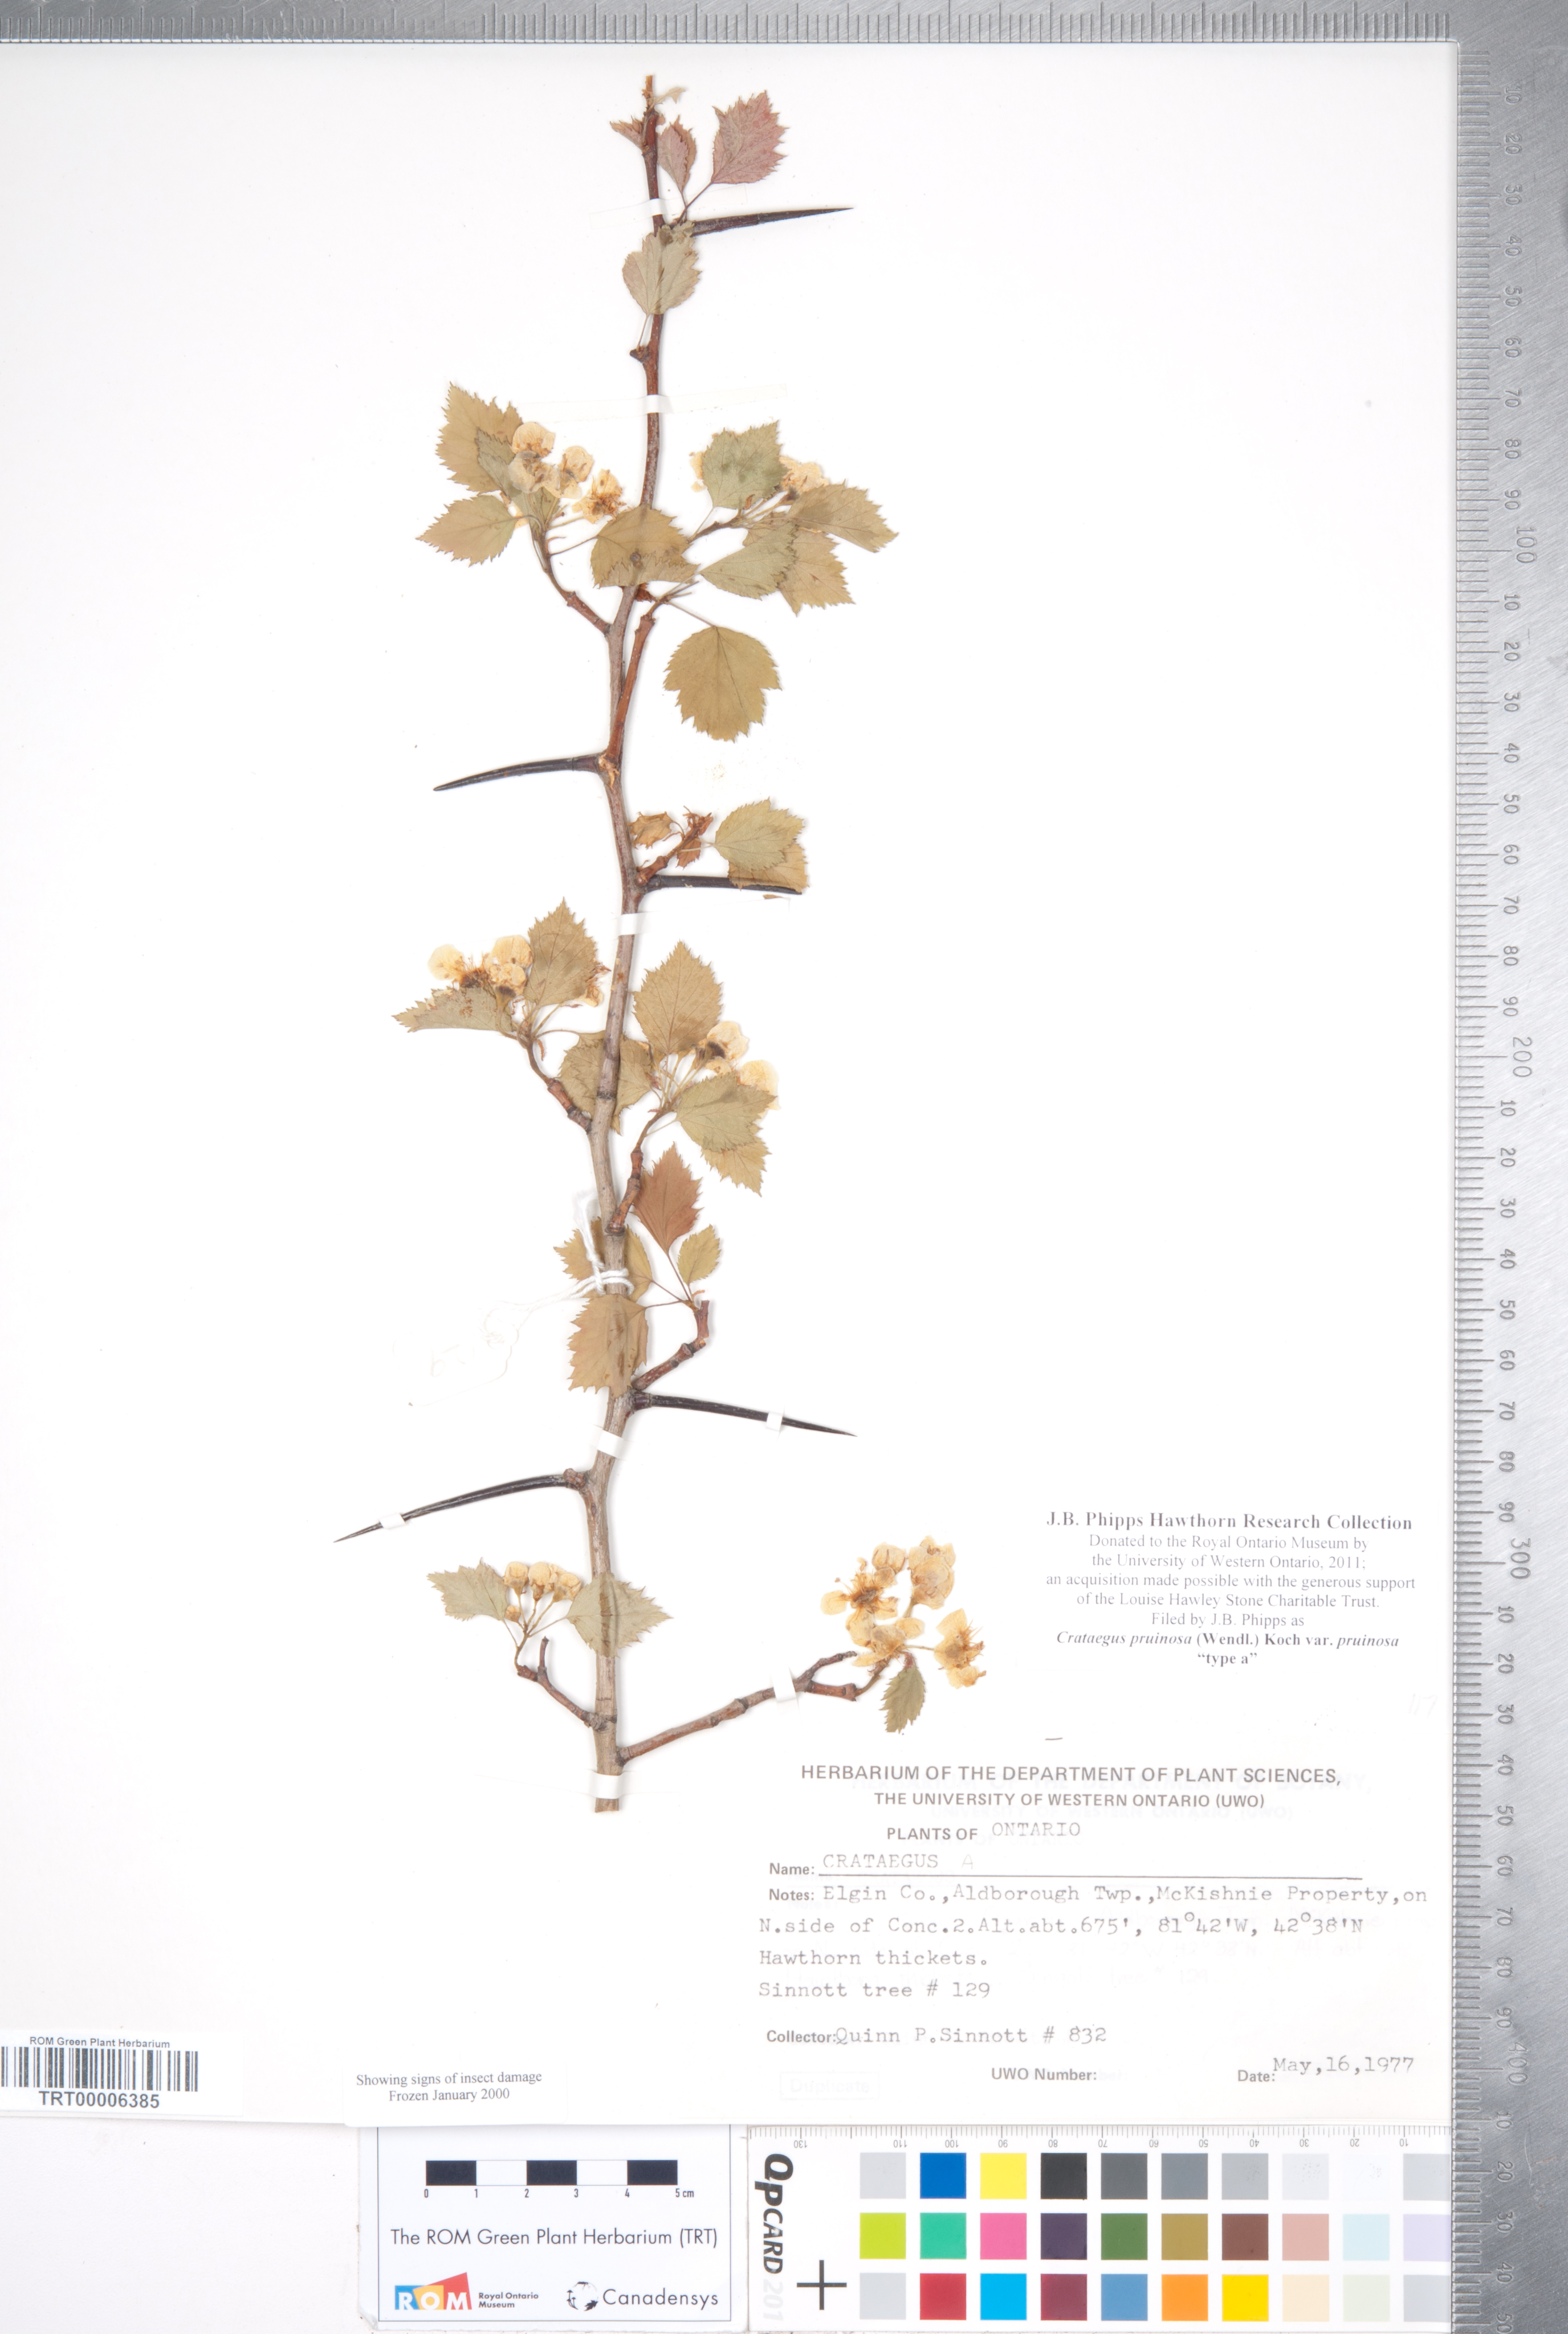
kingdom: Plantae
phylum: Tracheophyta
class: Magnoliopsida
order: Rosales
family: Rosaceae
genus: Crataegus
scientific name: Crataegus pruinosa
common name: Waxy-fruit hawthorn
